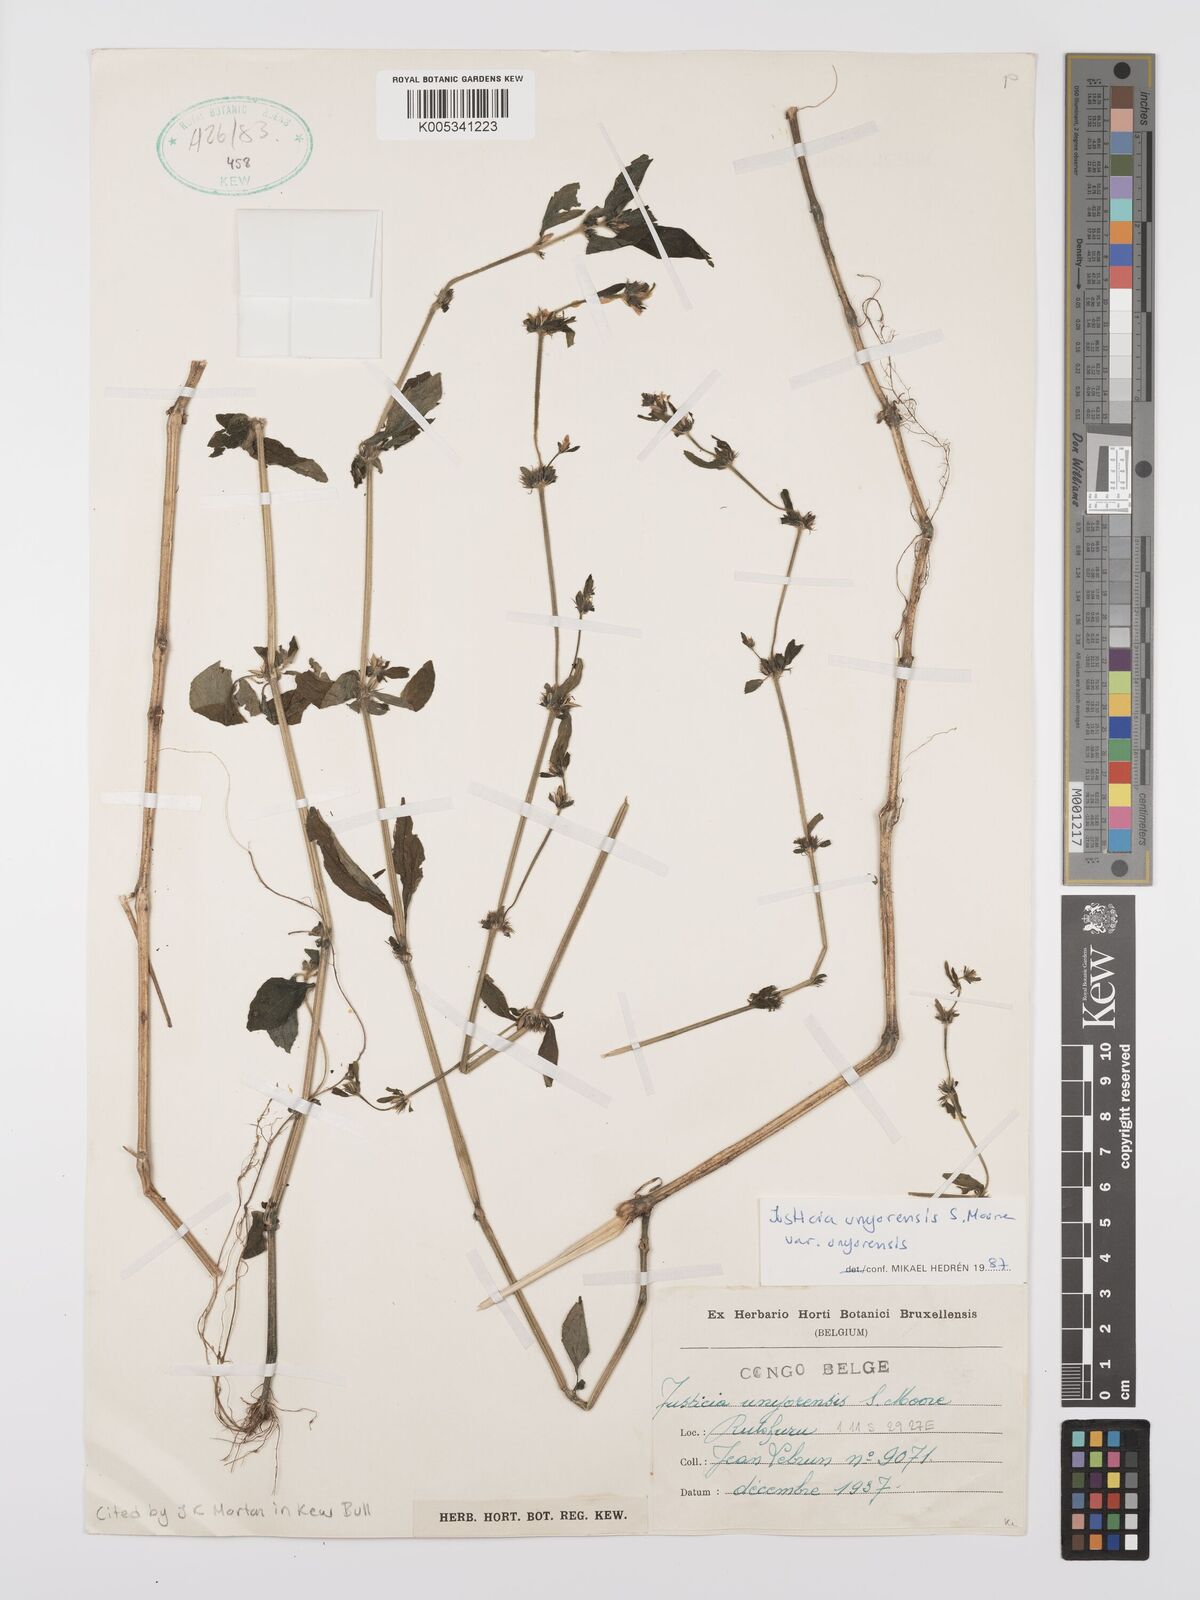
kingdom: Plantae
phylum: Tracheophyta
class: Magnoliopsida
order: Lamiales
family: Acanthaceae
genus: Justicia
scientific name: Justicia unyorensis
